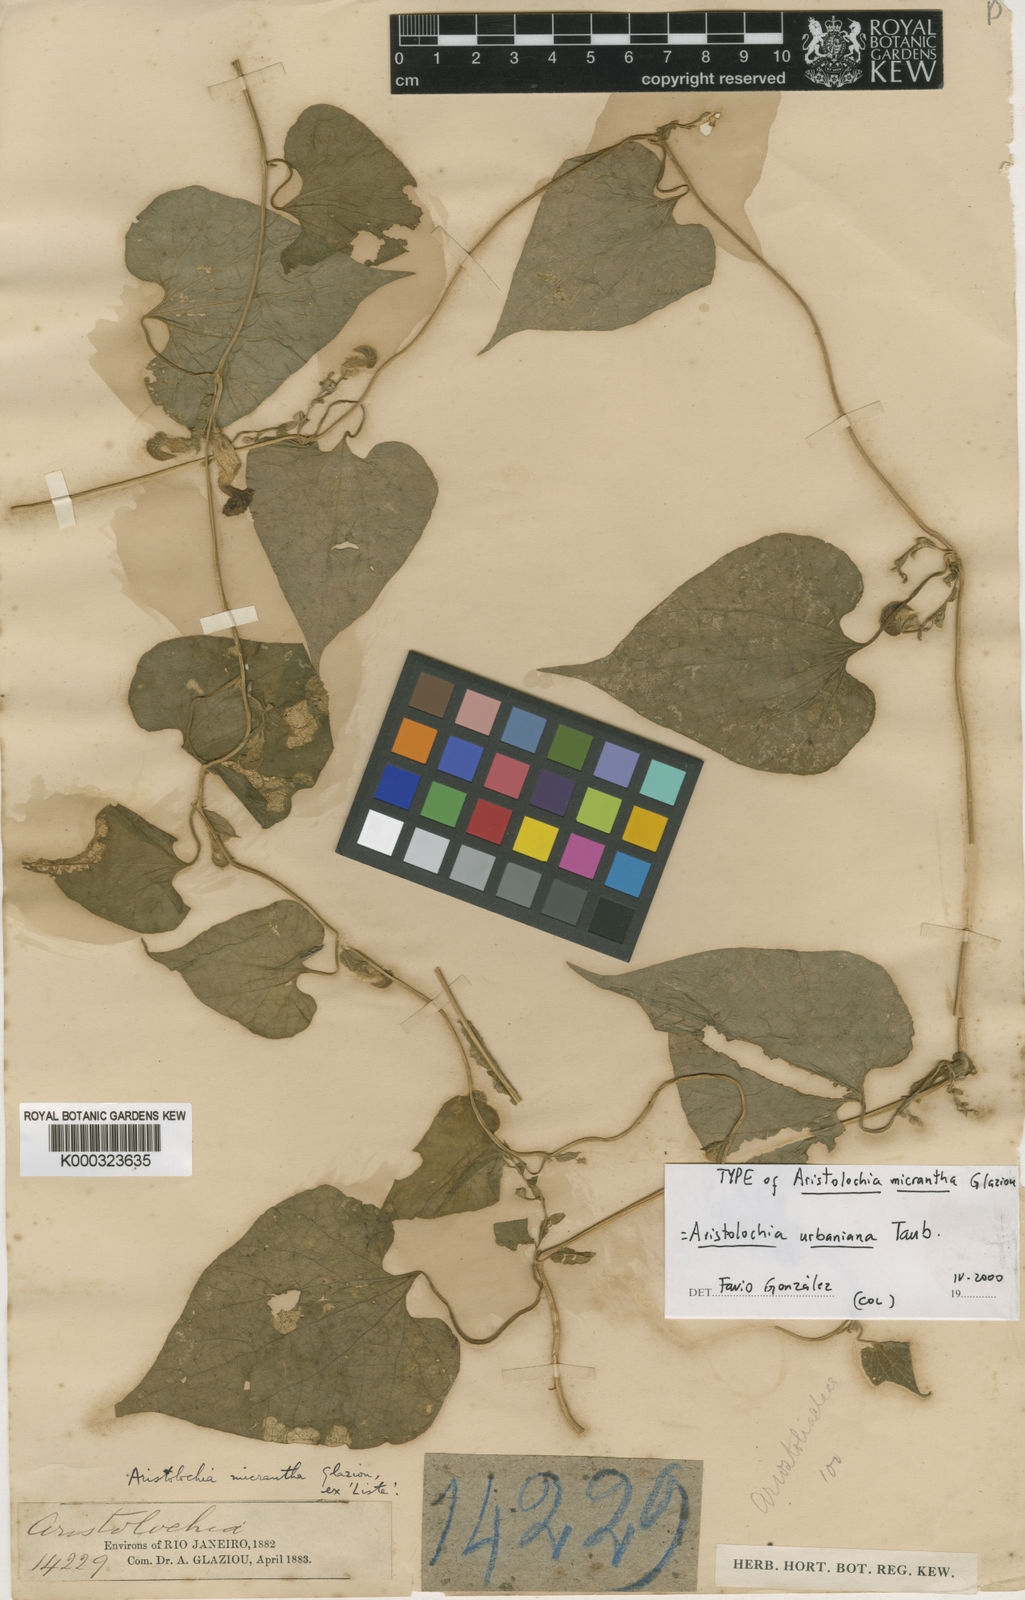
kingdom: Plantae
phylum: Tracheophyta
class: Magnoliopsida
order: Piperales
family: Aristolochiaceae
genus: Aristolochia
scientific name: Aristolochia urbaniana
